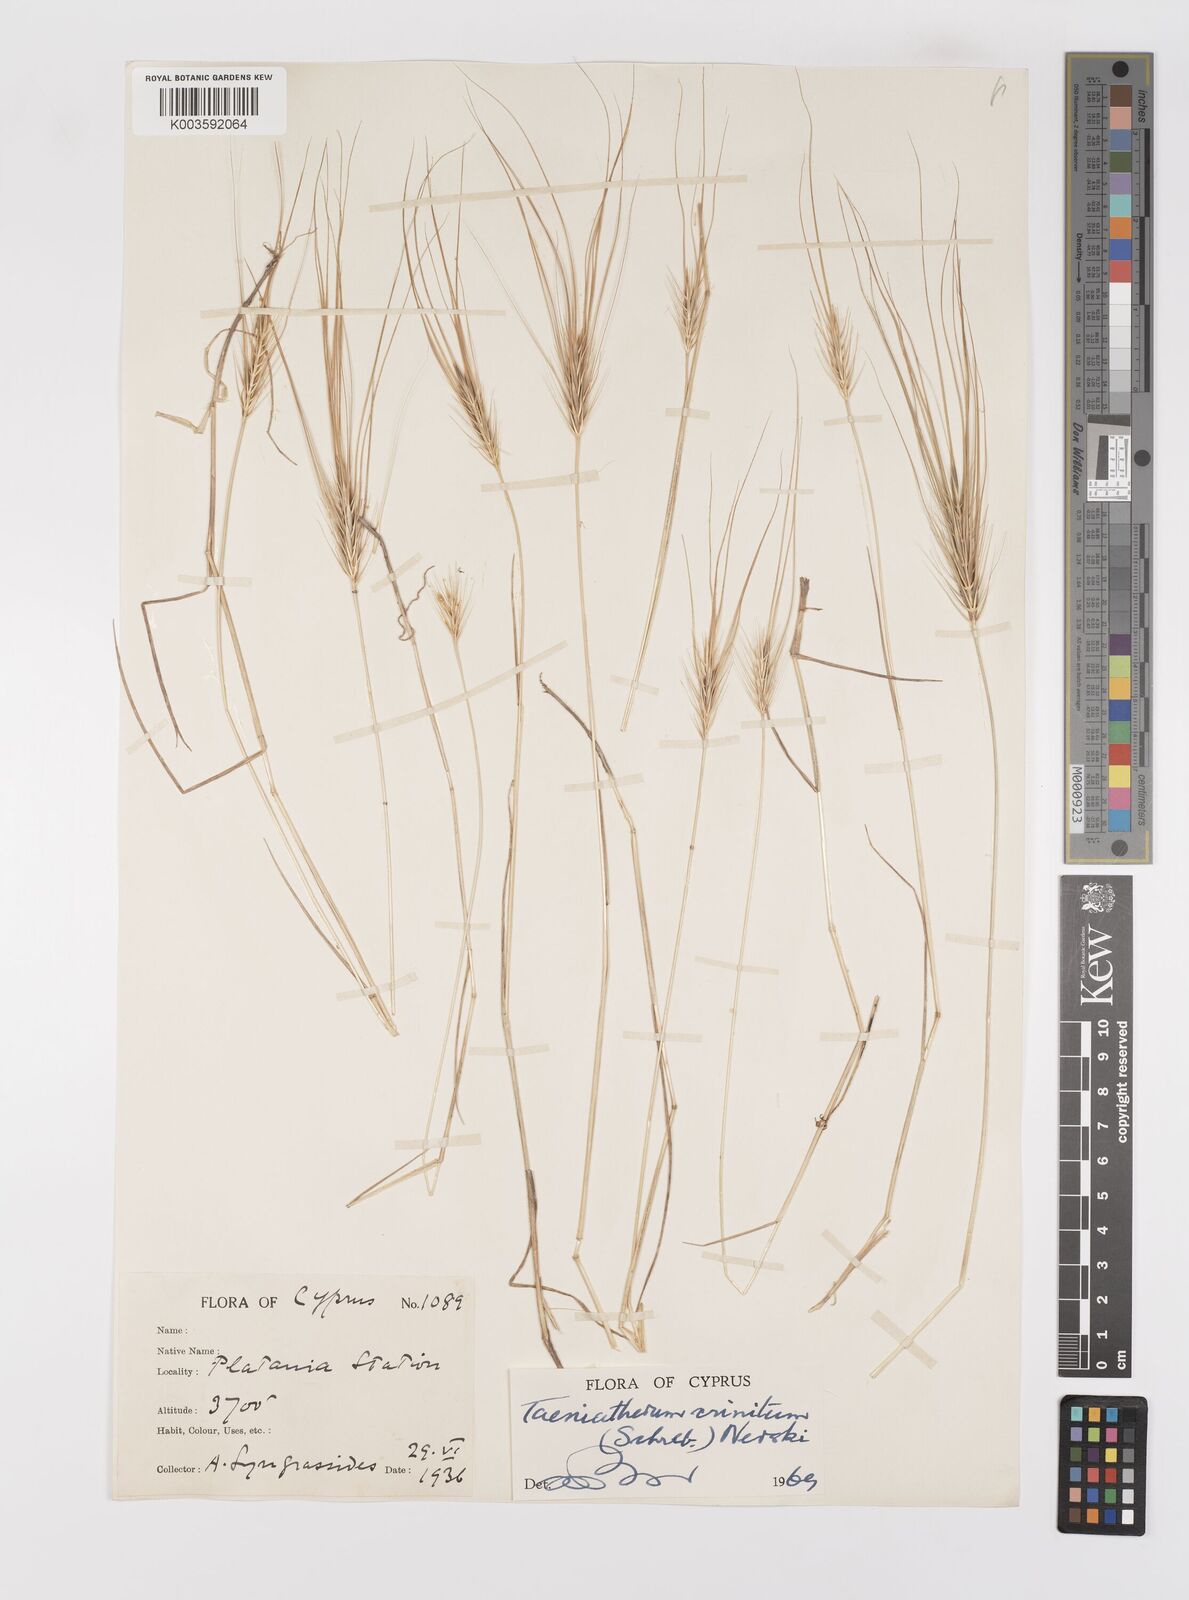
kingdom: Plantae
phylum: Tracheophyta
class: Liliopsida
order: Poales
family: Poaceae
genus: Taeniatherum
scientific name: Taeniatherum caput-medusae
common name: Medusahead
